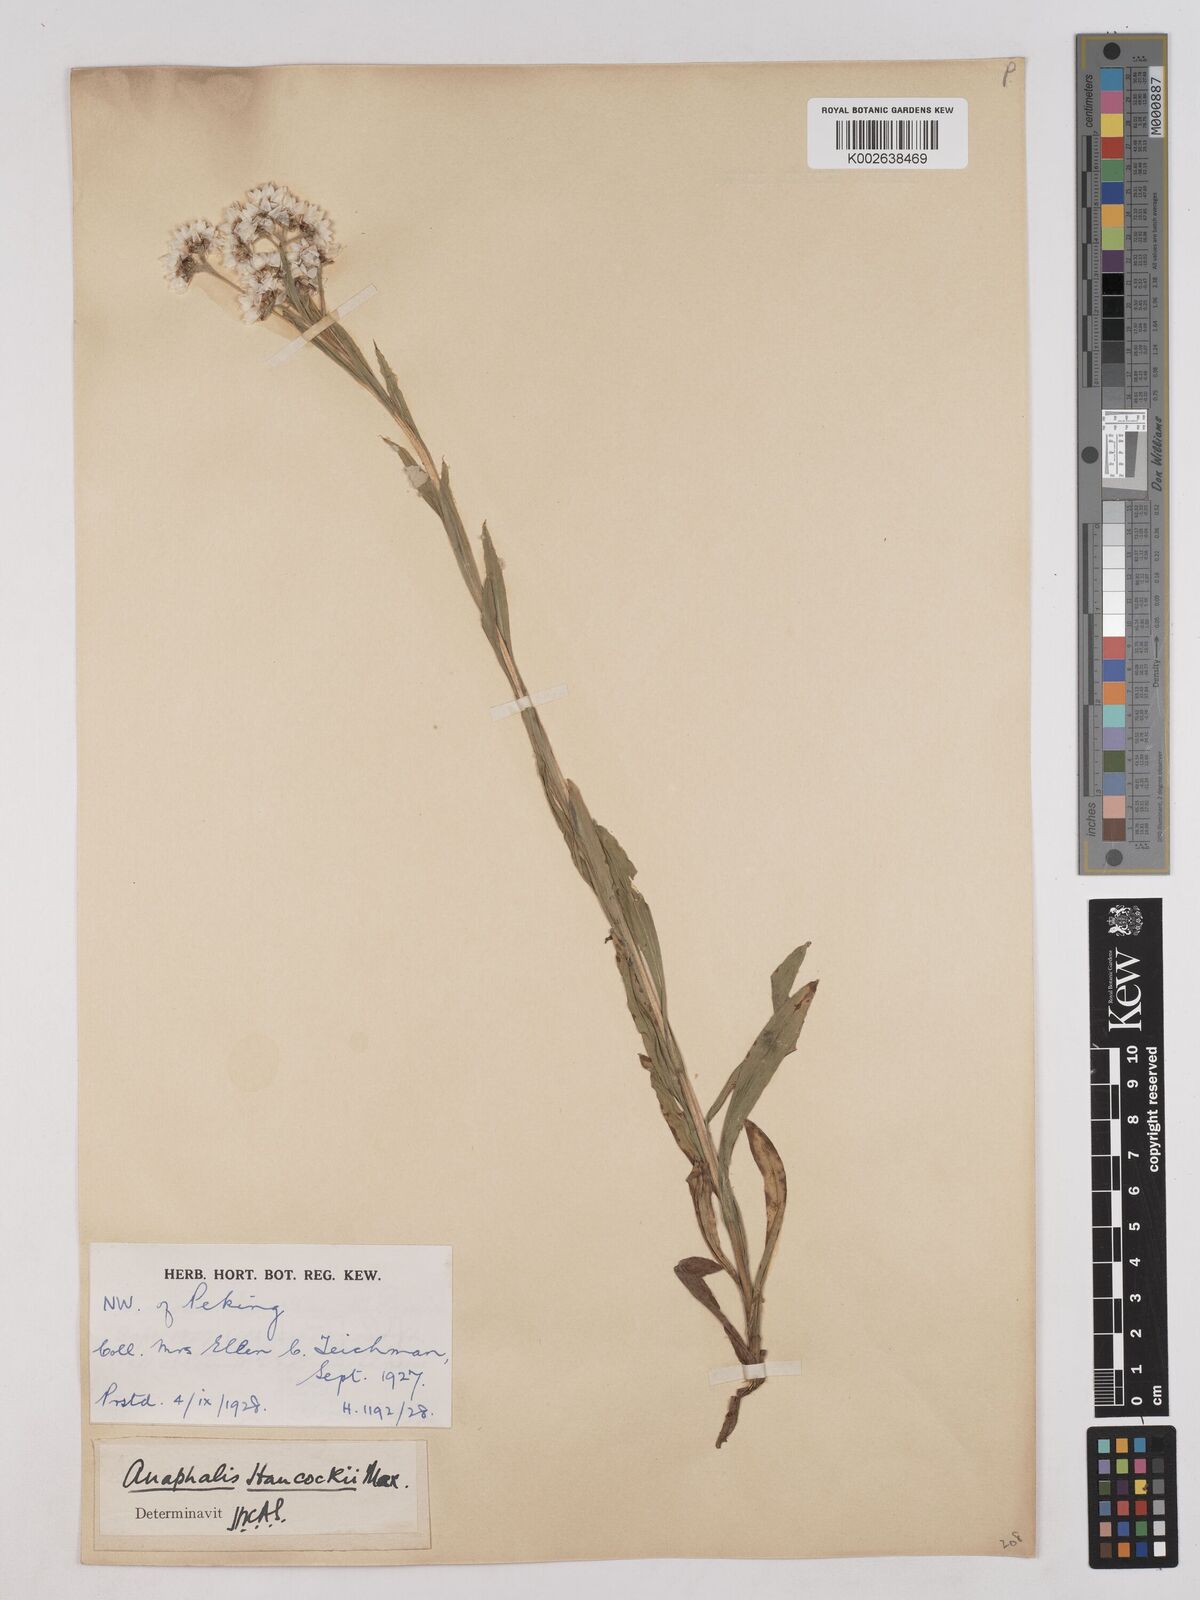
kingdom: Plantae
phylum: Tracheophyta
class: Magnoliopsida
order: Asterales
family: Asteraceae
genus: Anaphalis
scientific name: Anaphalis hancockii
